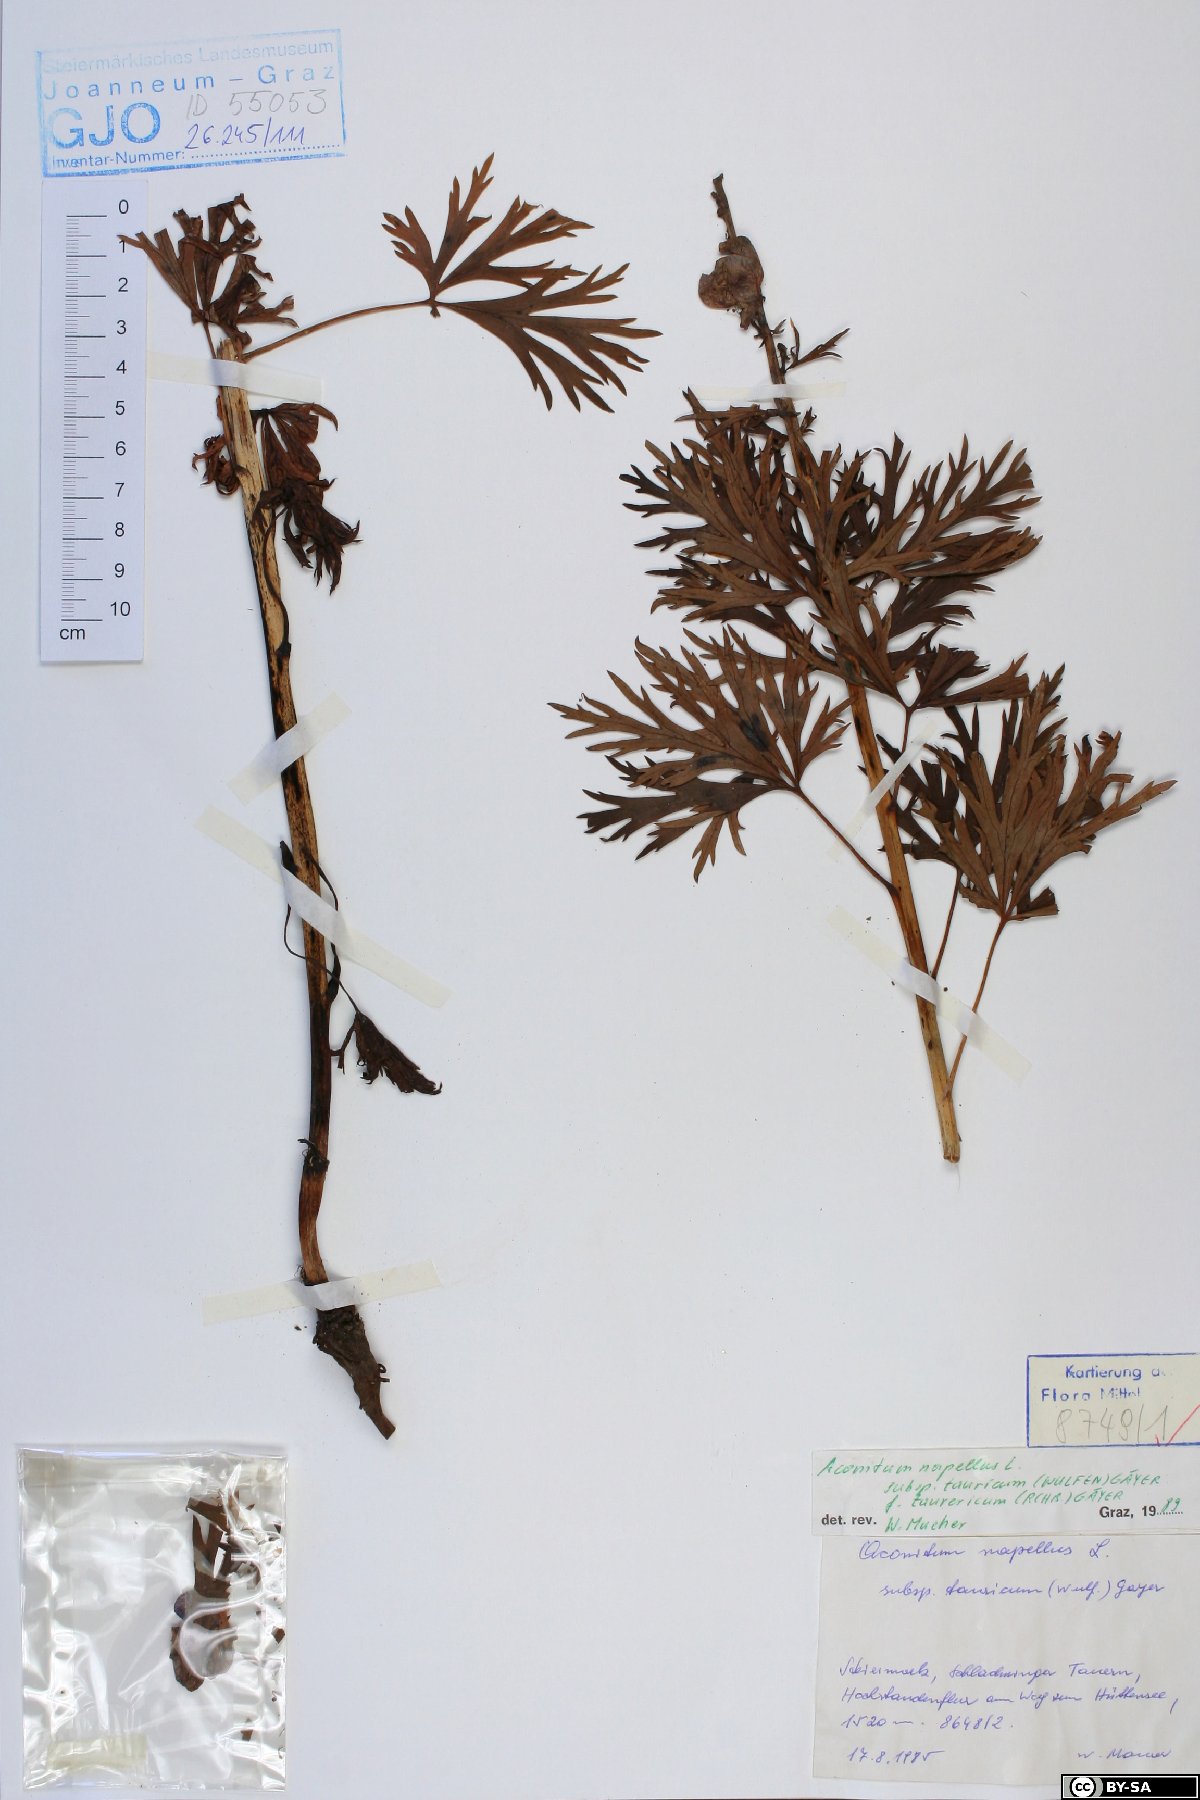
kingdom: Plantae
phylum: Tracheophyta
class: Magnoliopsida
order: Ranunculales
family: Ranunculaceae
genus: Aconitum
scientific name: Aconitum tauricum
